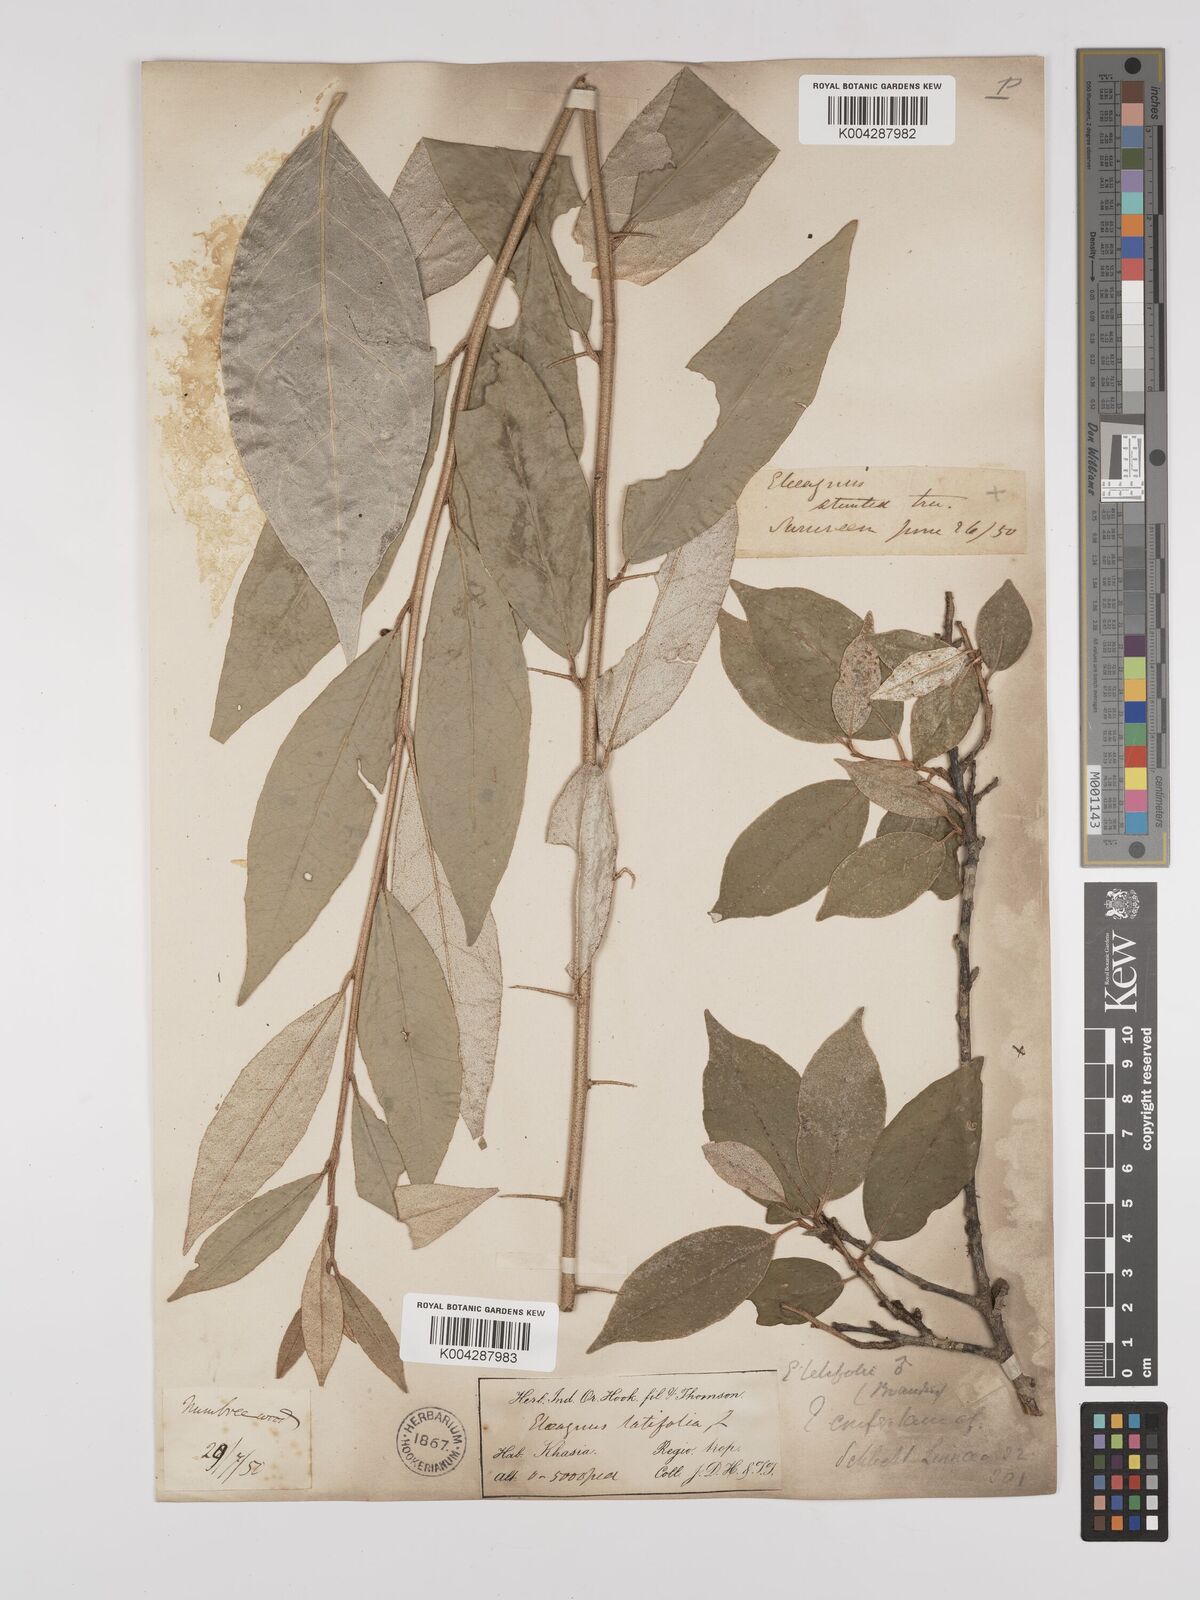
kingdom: Plantae
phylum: Tracheophyta
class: Magnoliopsida
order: Rosales
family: Elaeagnaceae
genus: Elaeagnus
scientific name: Elaeagnus latifolia
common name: Oleaster
